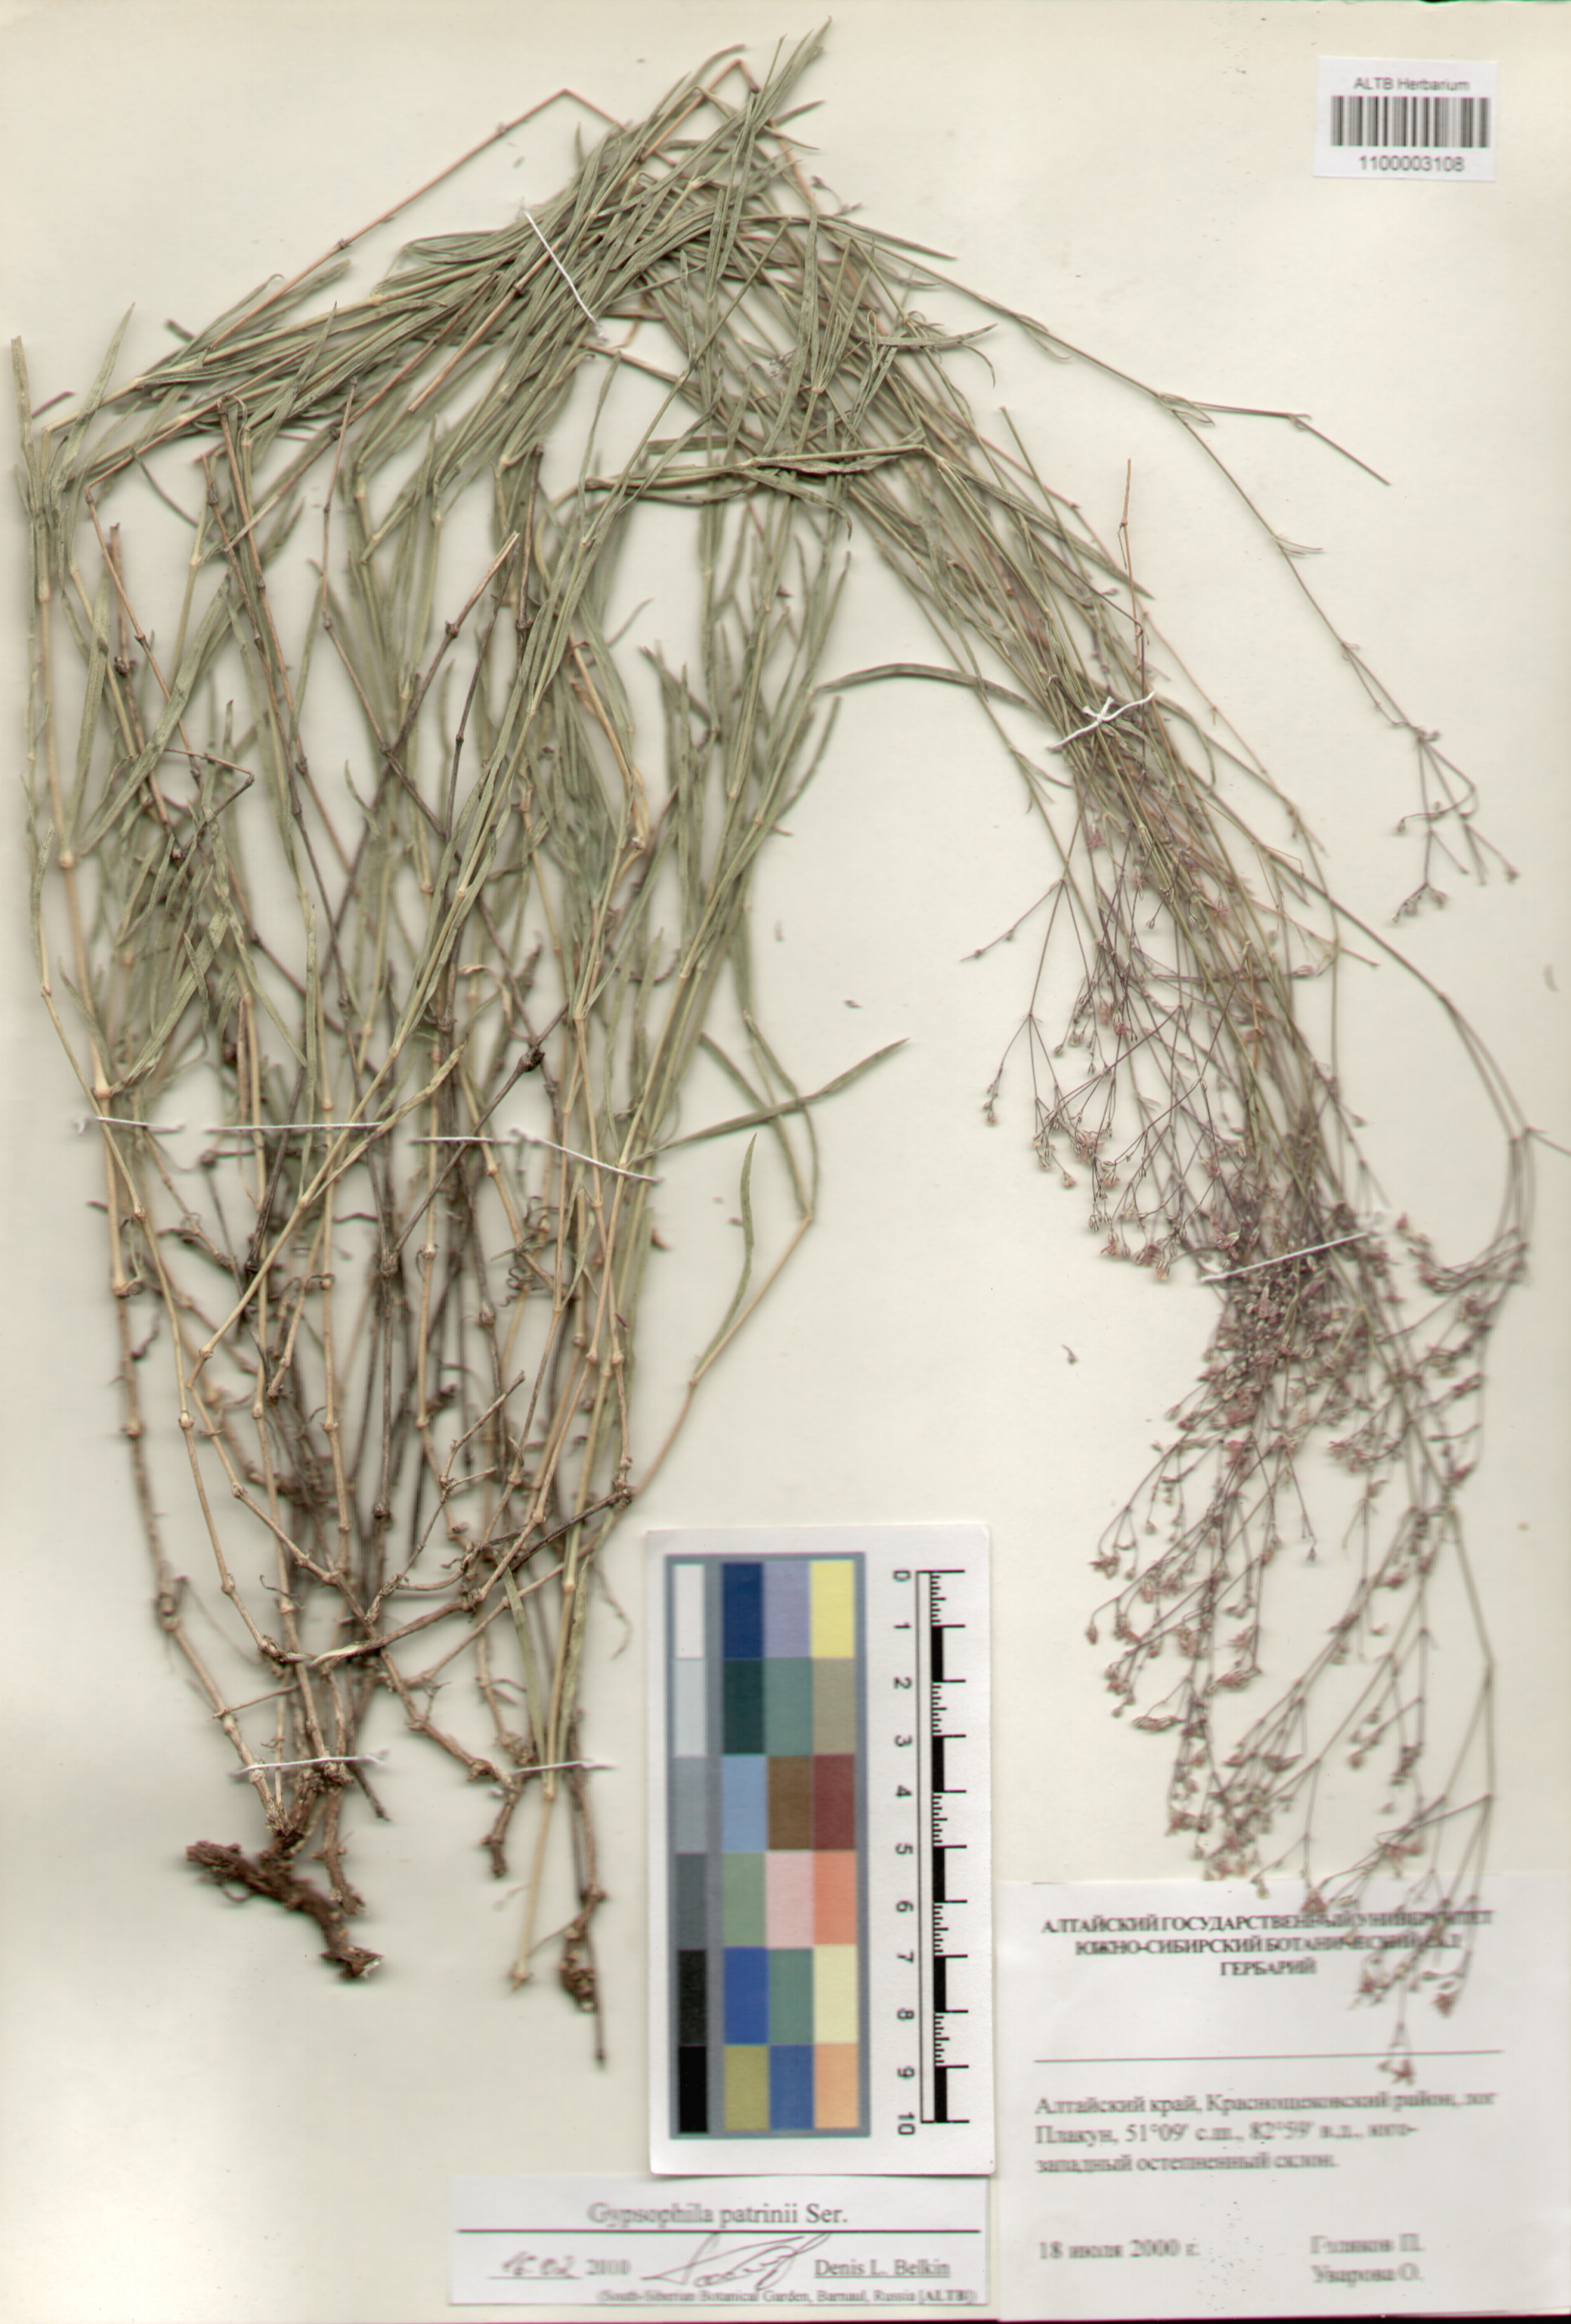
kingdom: Plantae
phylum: Tracheophyta
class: Magnoliopsida
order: Caryophyllales
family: Caryophyllaceae
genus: Gypsophila
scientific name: Gypsophila patrinii
